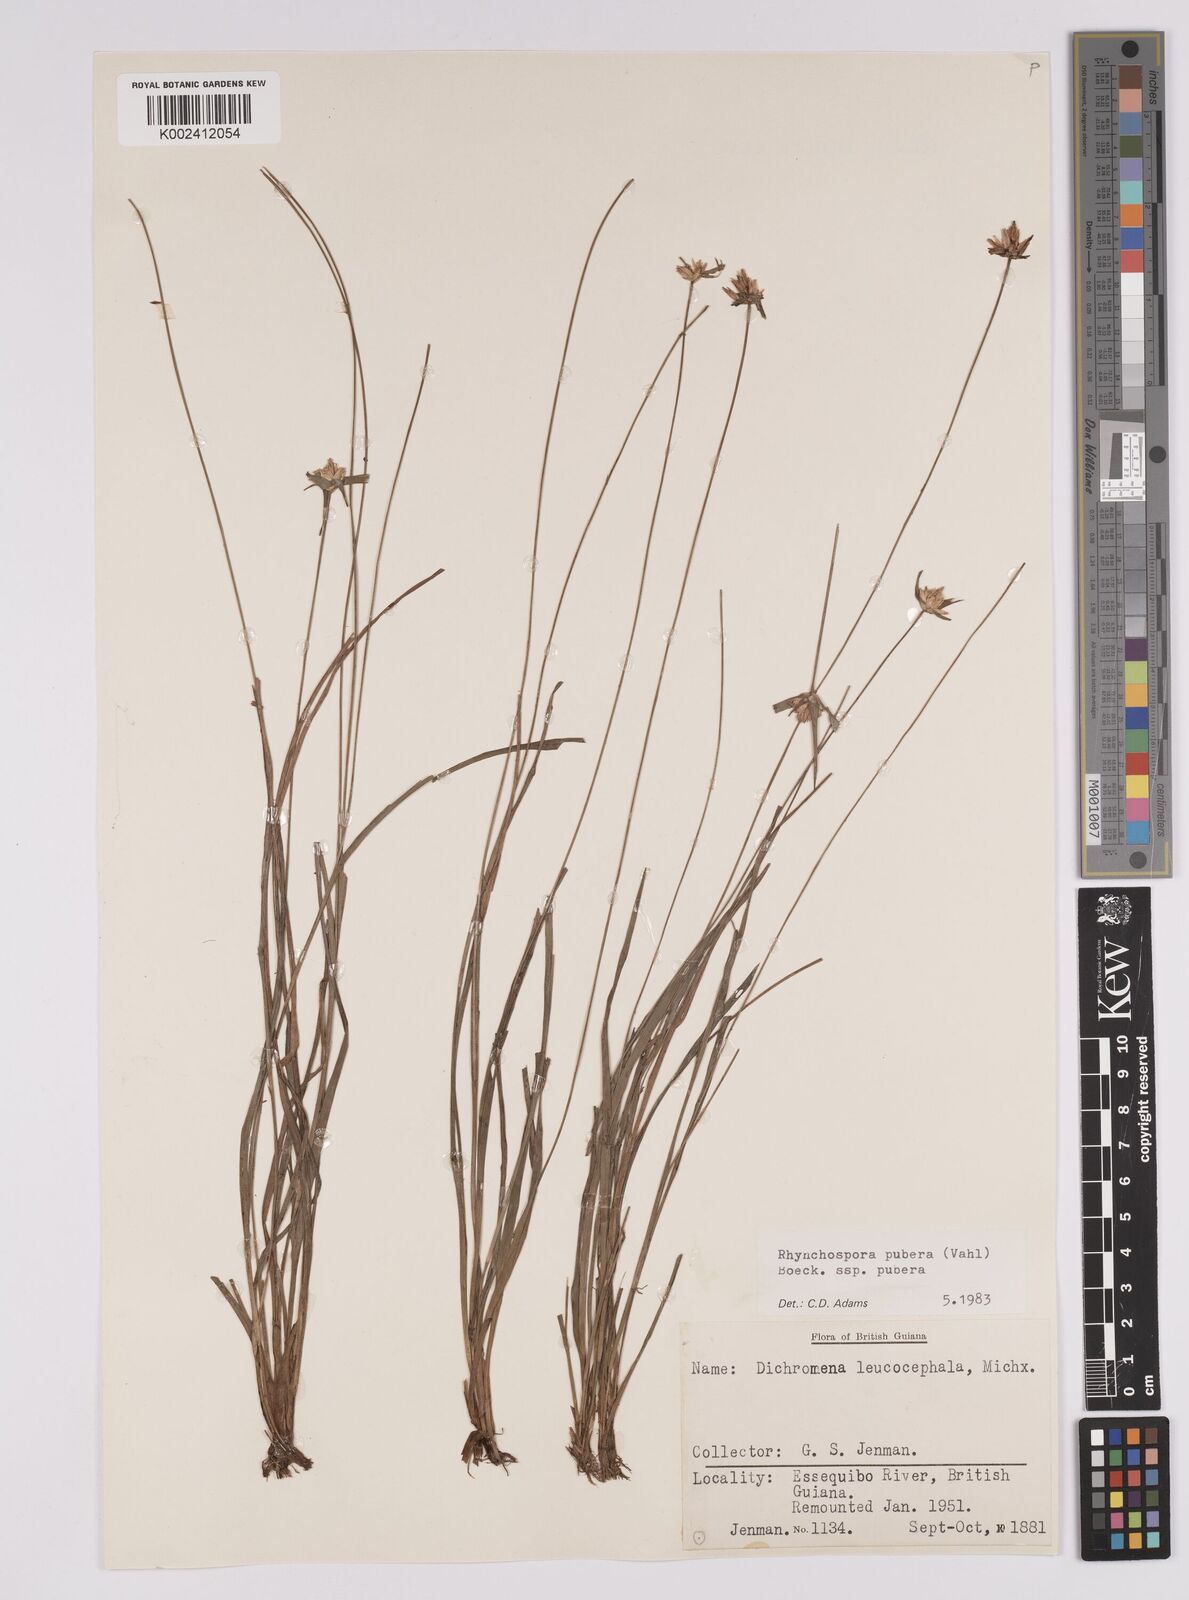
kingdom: Plantae
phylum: Tracheophyta
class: Liliopsida
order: Poales
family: Cyperaceae
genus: Rhynchospora
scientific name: Rhynchospora pubera
